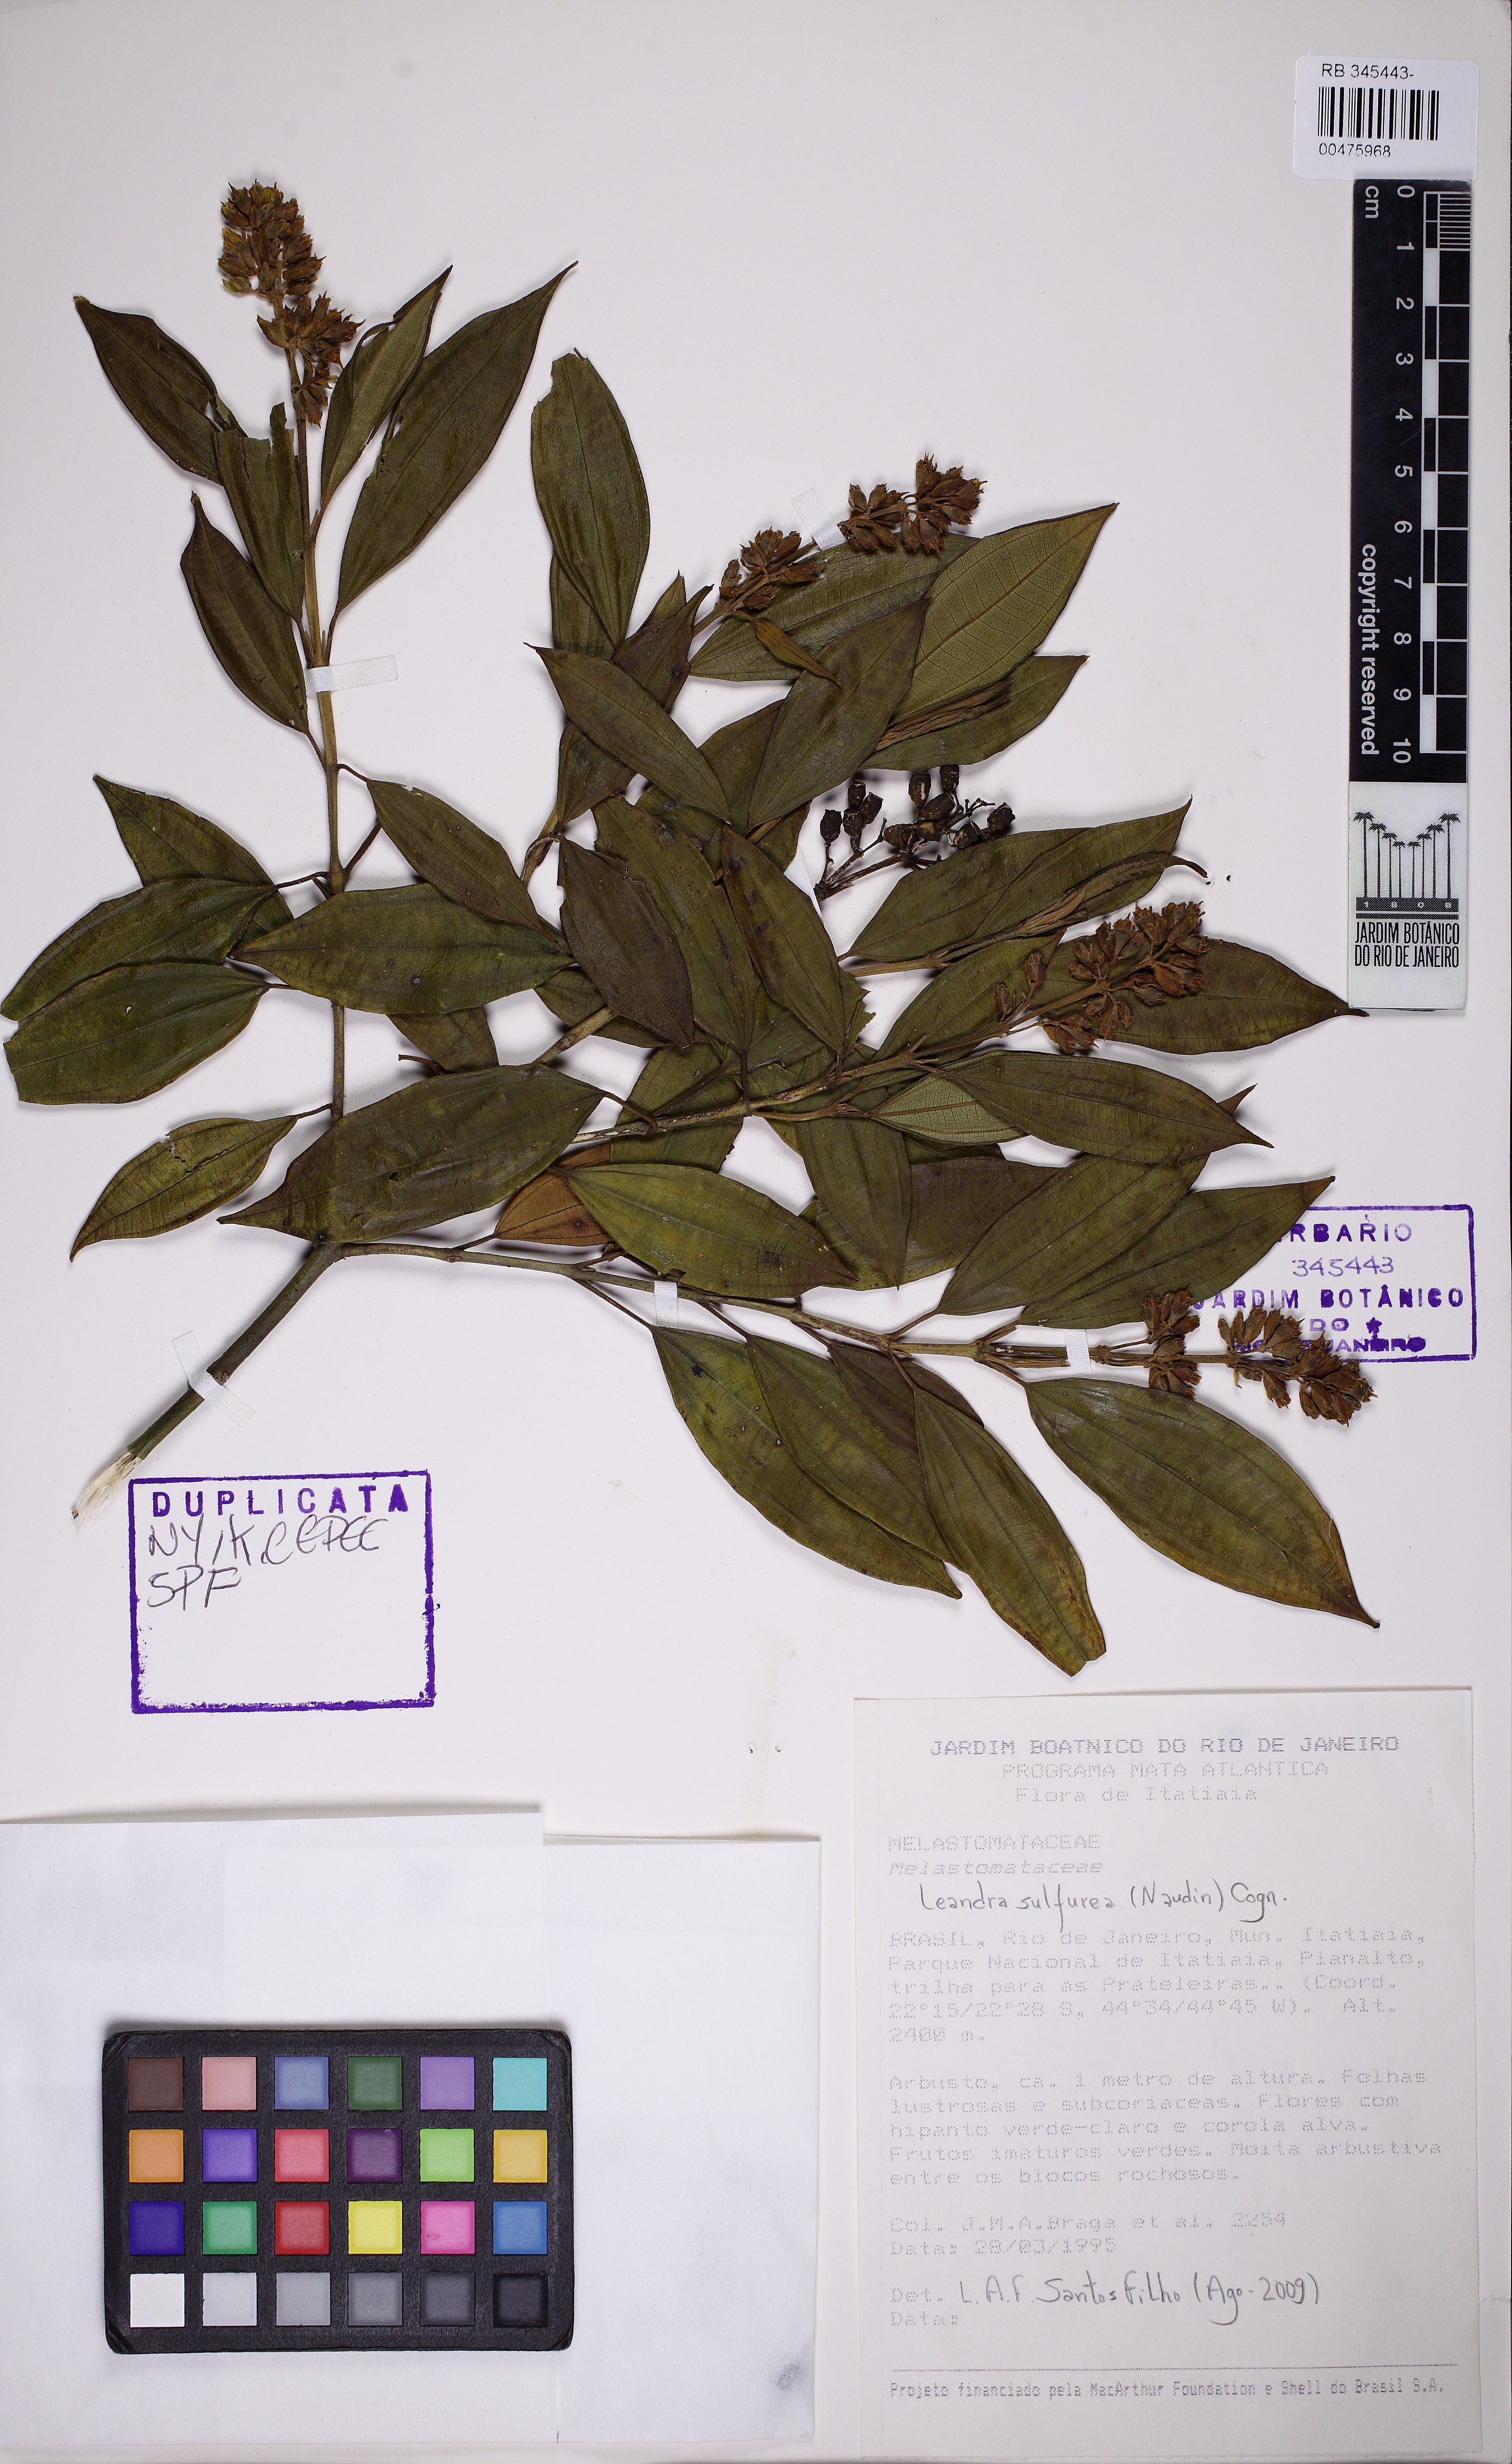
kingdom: Plantae
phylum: Tracheophyta
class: Magnoliopsida
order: Myrtales
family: Melastomataceae
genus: Miconia
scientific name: Miconia sulfurea
